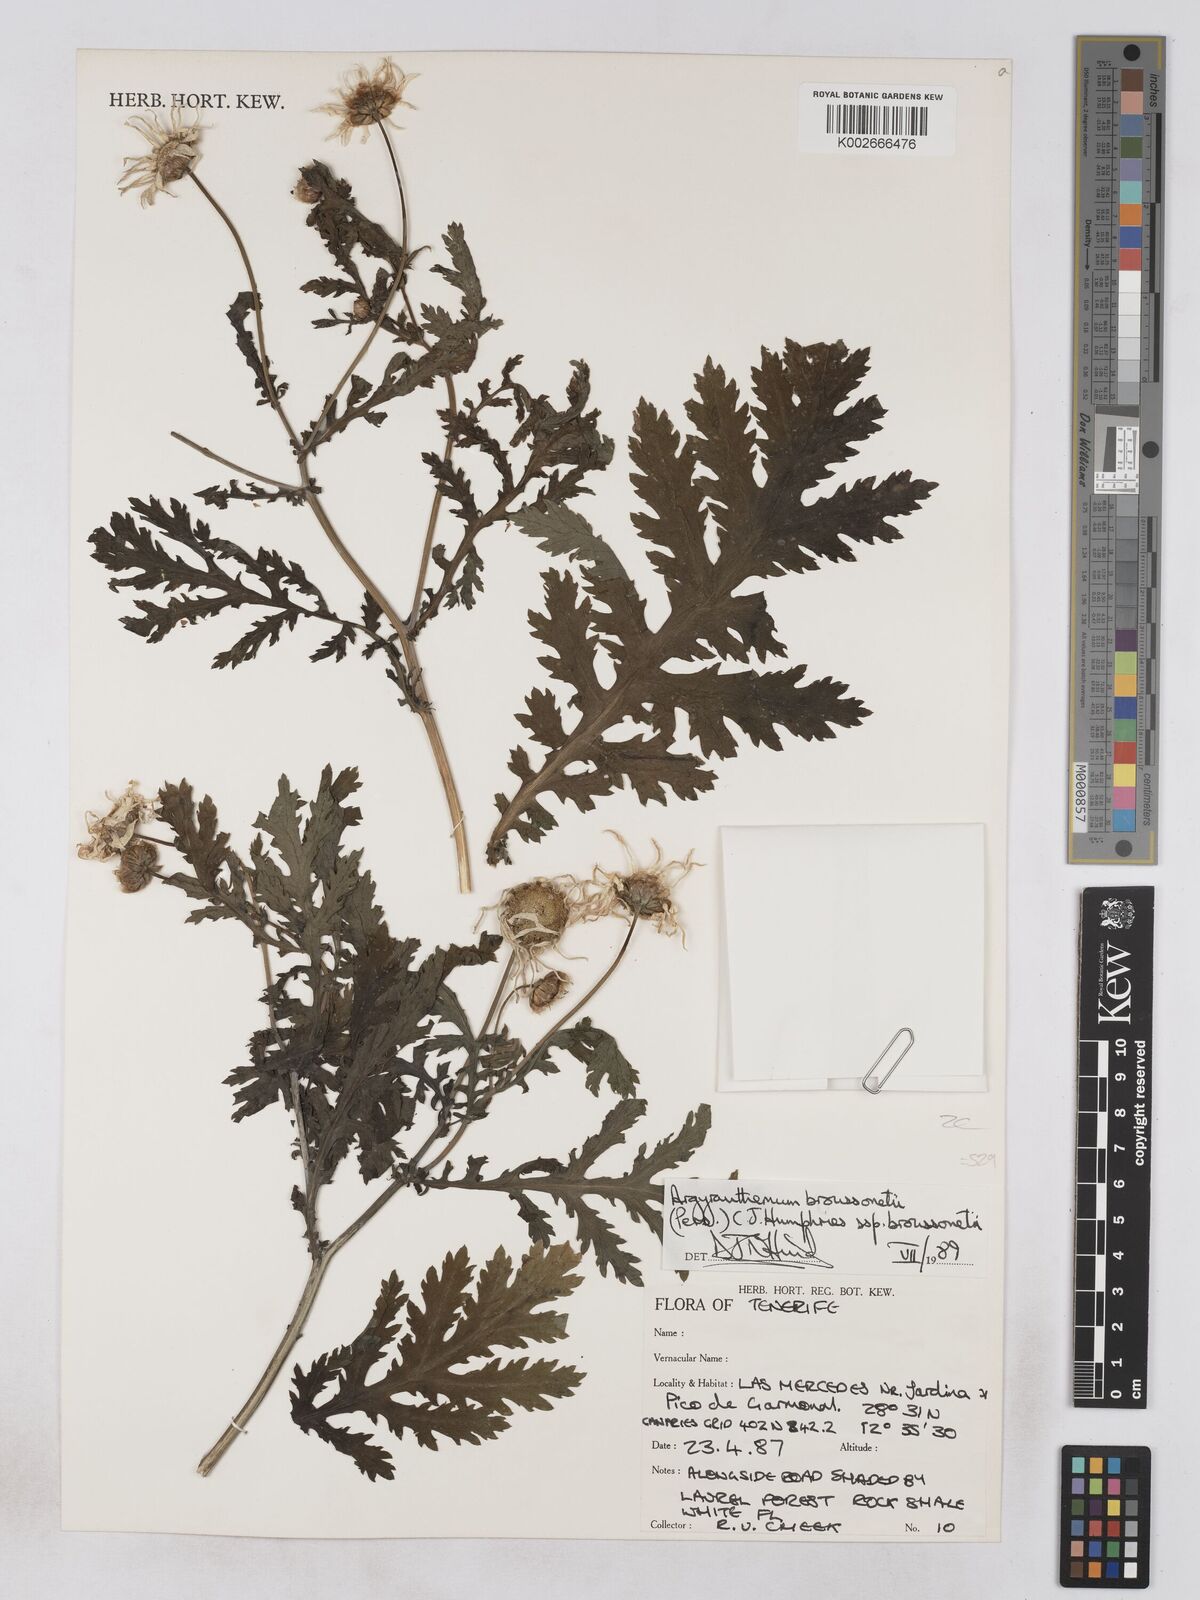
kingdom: Plantae
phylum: Tracheophyta
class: Magnoliopsida
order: Asterales
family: Asteraceae
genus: Argyranthemum
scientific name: Argyranthemum broussonetii
